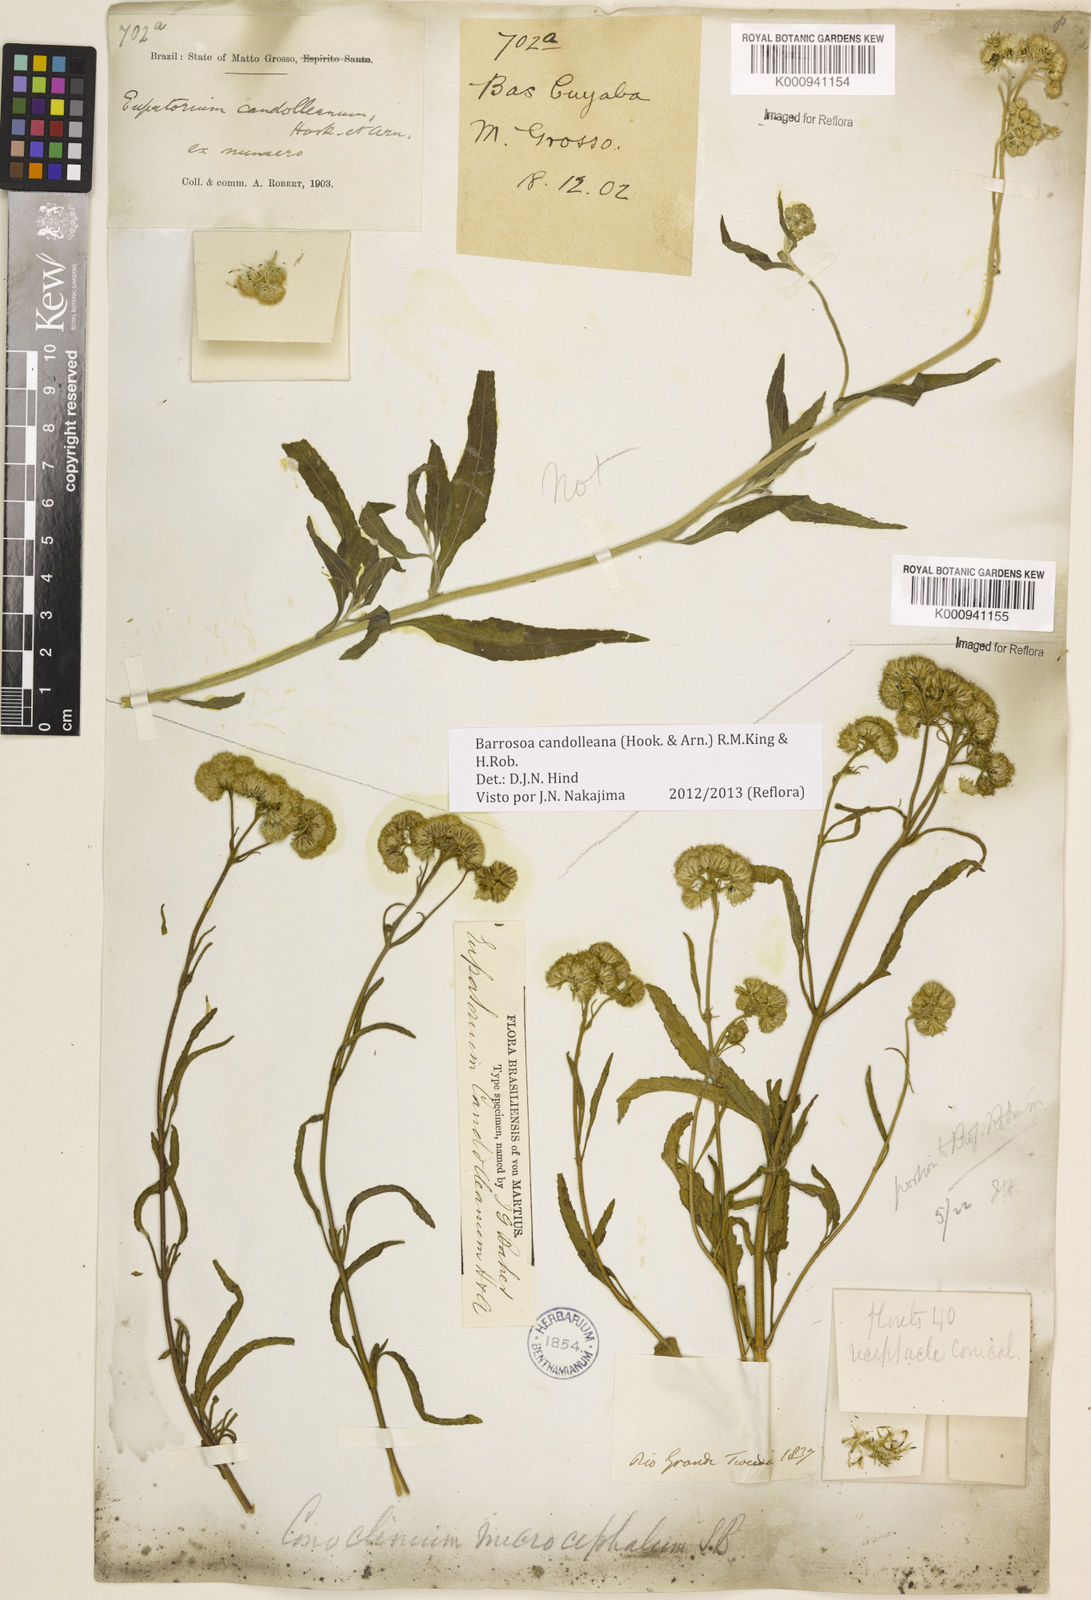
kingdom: Plantae
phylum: Tracheophyta
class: Magnoliopsida
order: Asterales
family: Asteraceae
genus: Barrosoa
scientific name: Barrosoa candolleana
